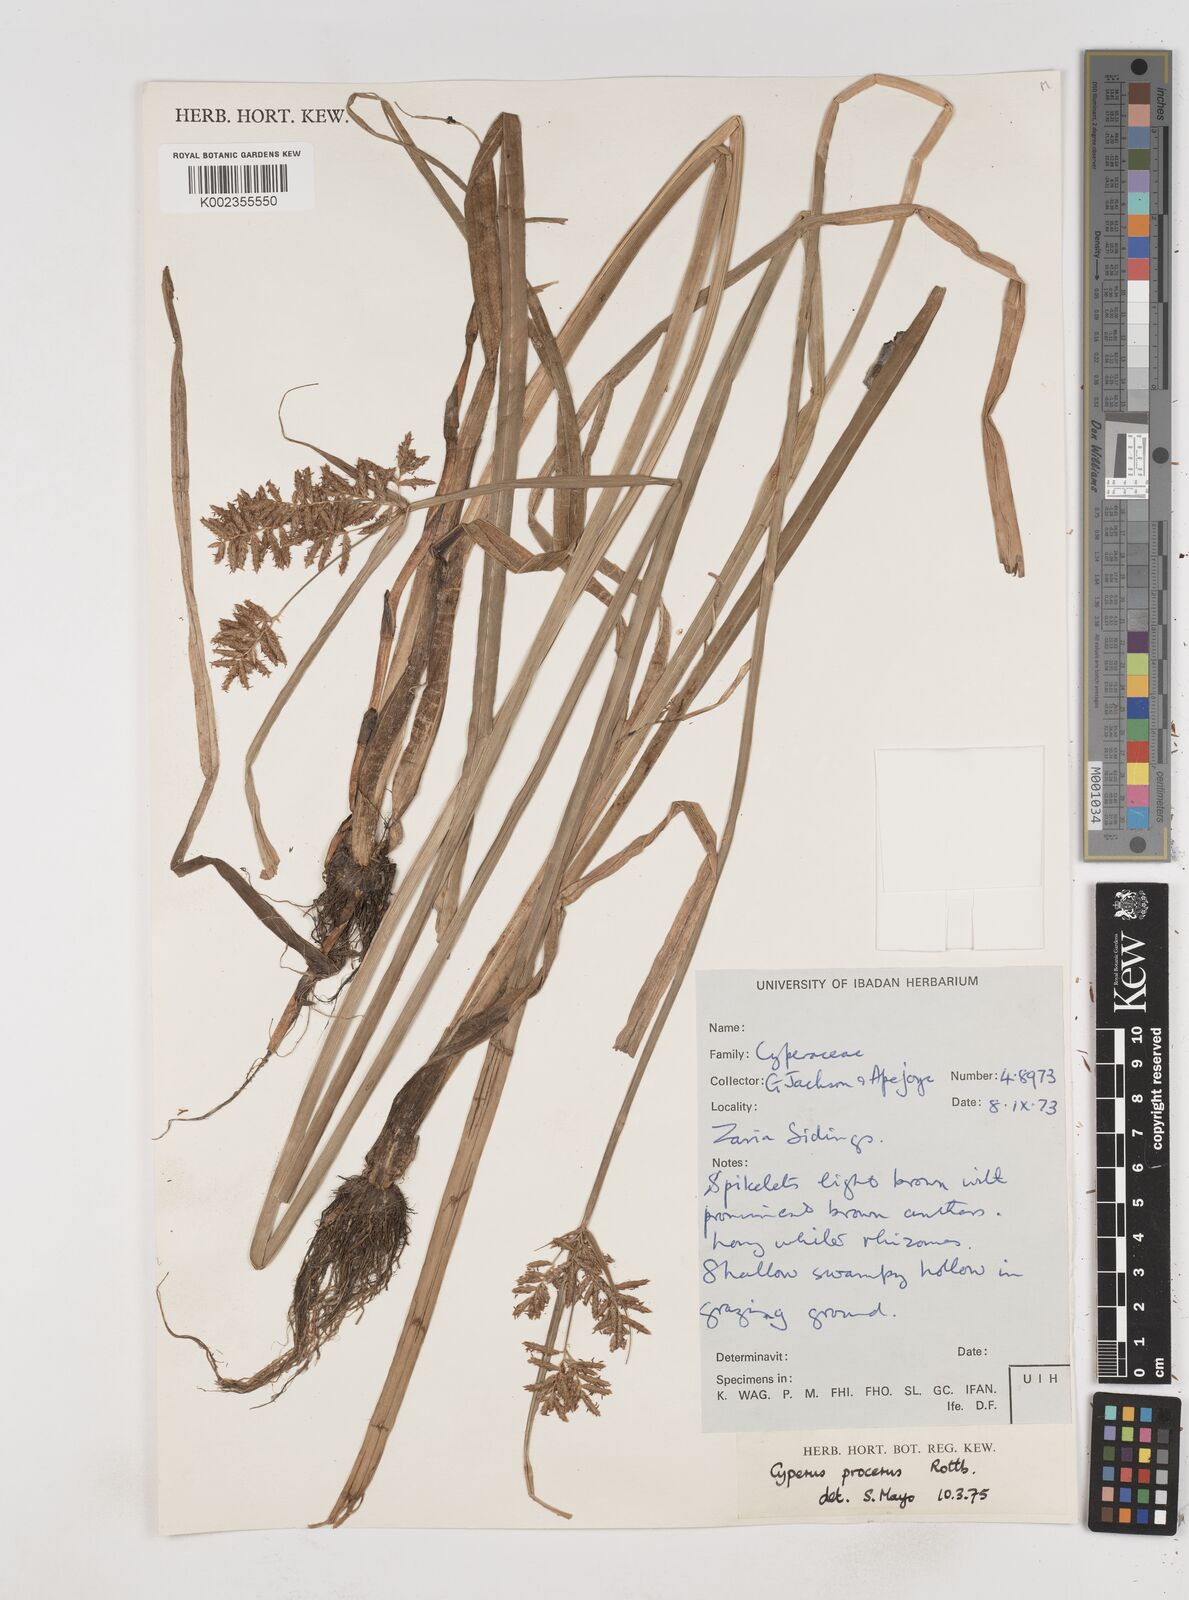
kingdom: Plantae
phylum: Tracheophyta
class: Liliopsida
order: Poales
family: Cyperaceae
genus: Cyperus
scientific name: Cyperus procerus
